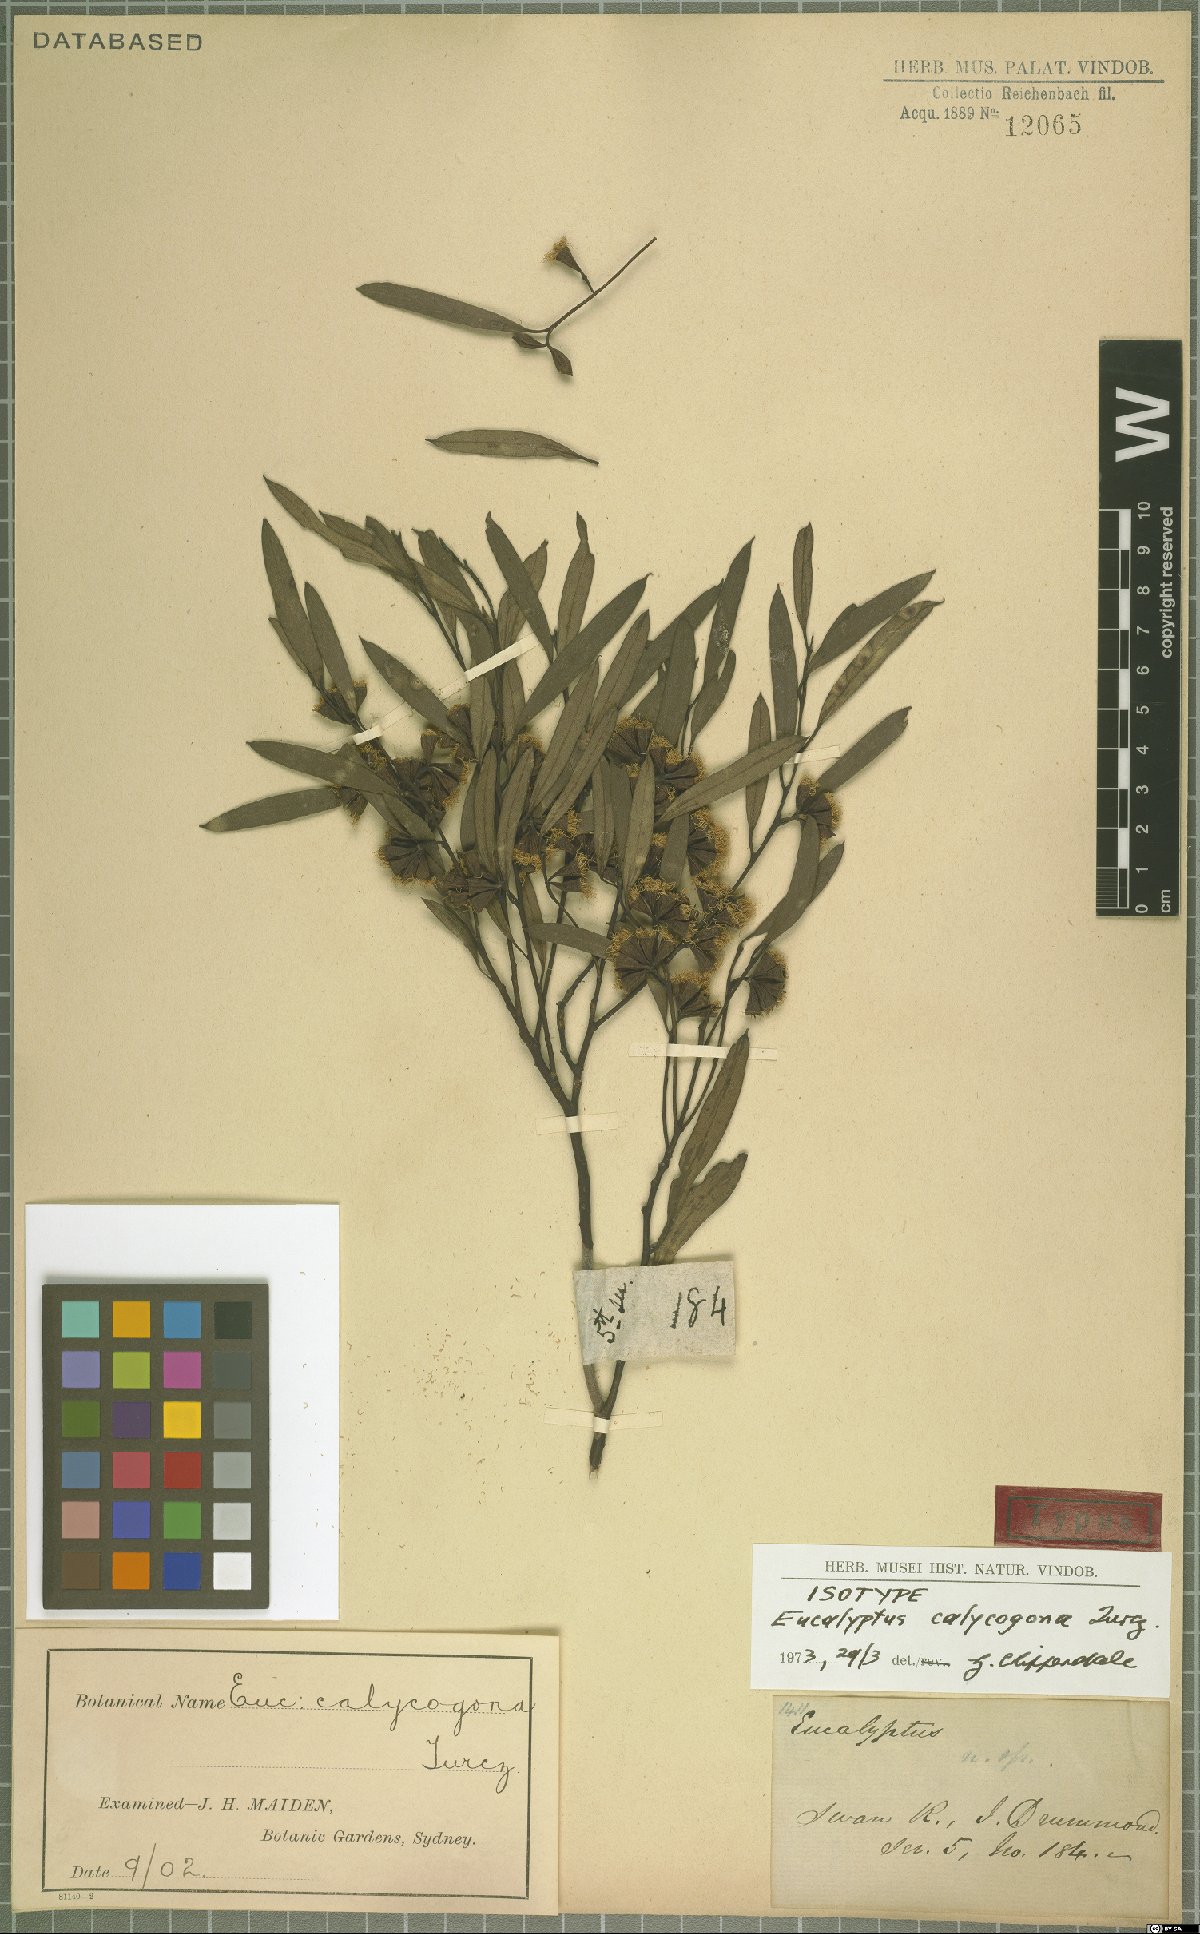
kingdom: Plantae
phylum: Tracheophyta
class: Magnoliopsida
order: Myrtales
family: Myrtaceae
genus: Eucalyptus
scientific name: Eucalyptus calycogona
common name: Marvel mallee
